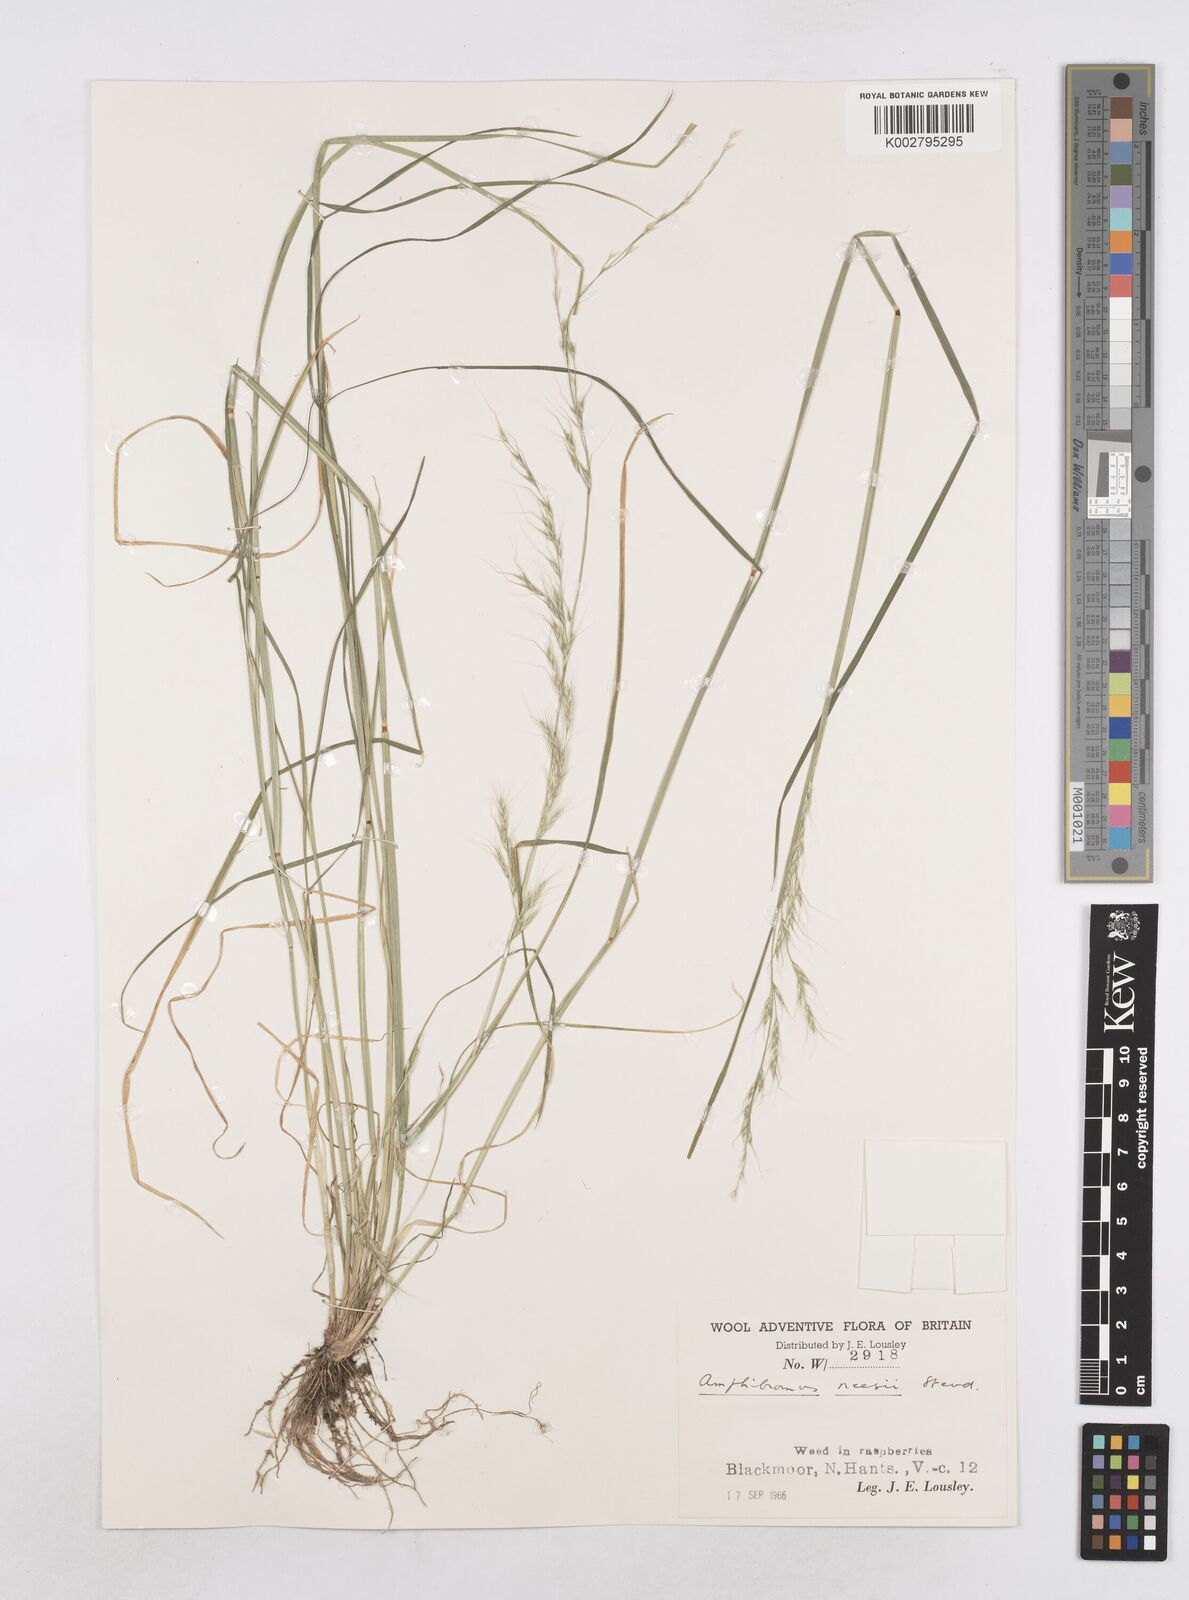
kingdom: Plantae
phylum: Tracheophyta
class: Liliopsida
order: Poales
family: Poaceae
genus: Amphibromus
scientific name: Amphibromus neesii
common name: Australian wallaby grass
